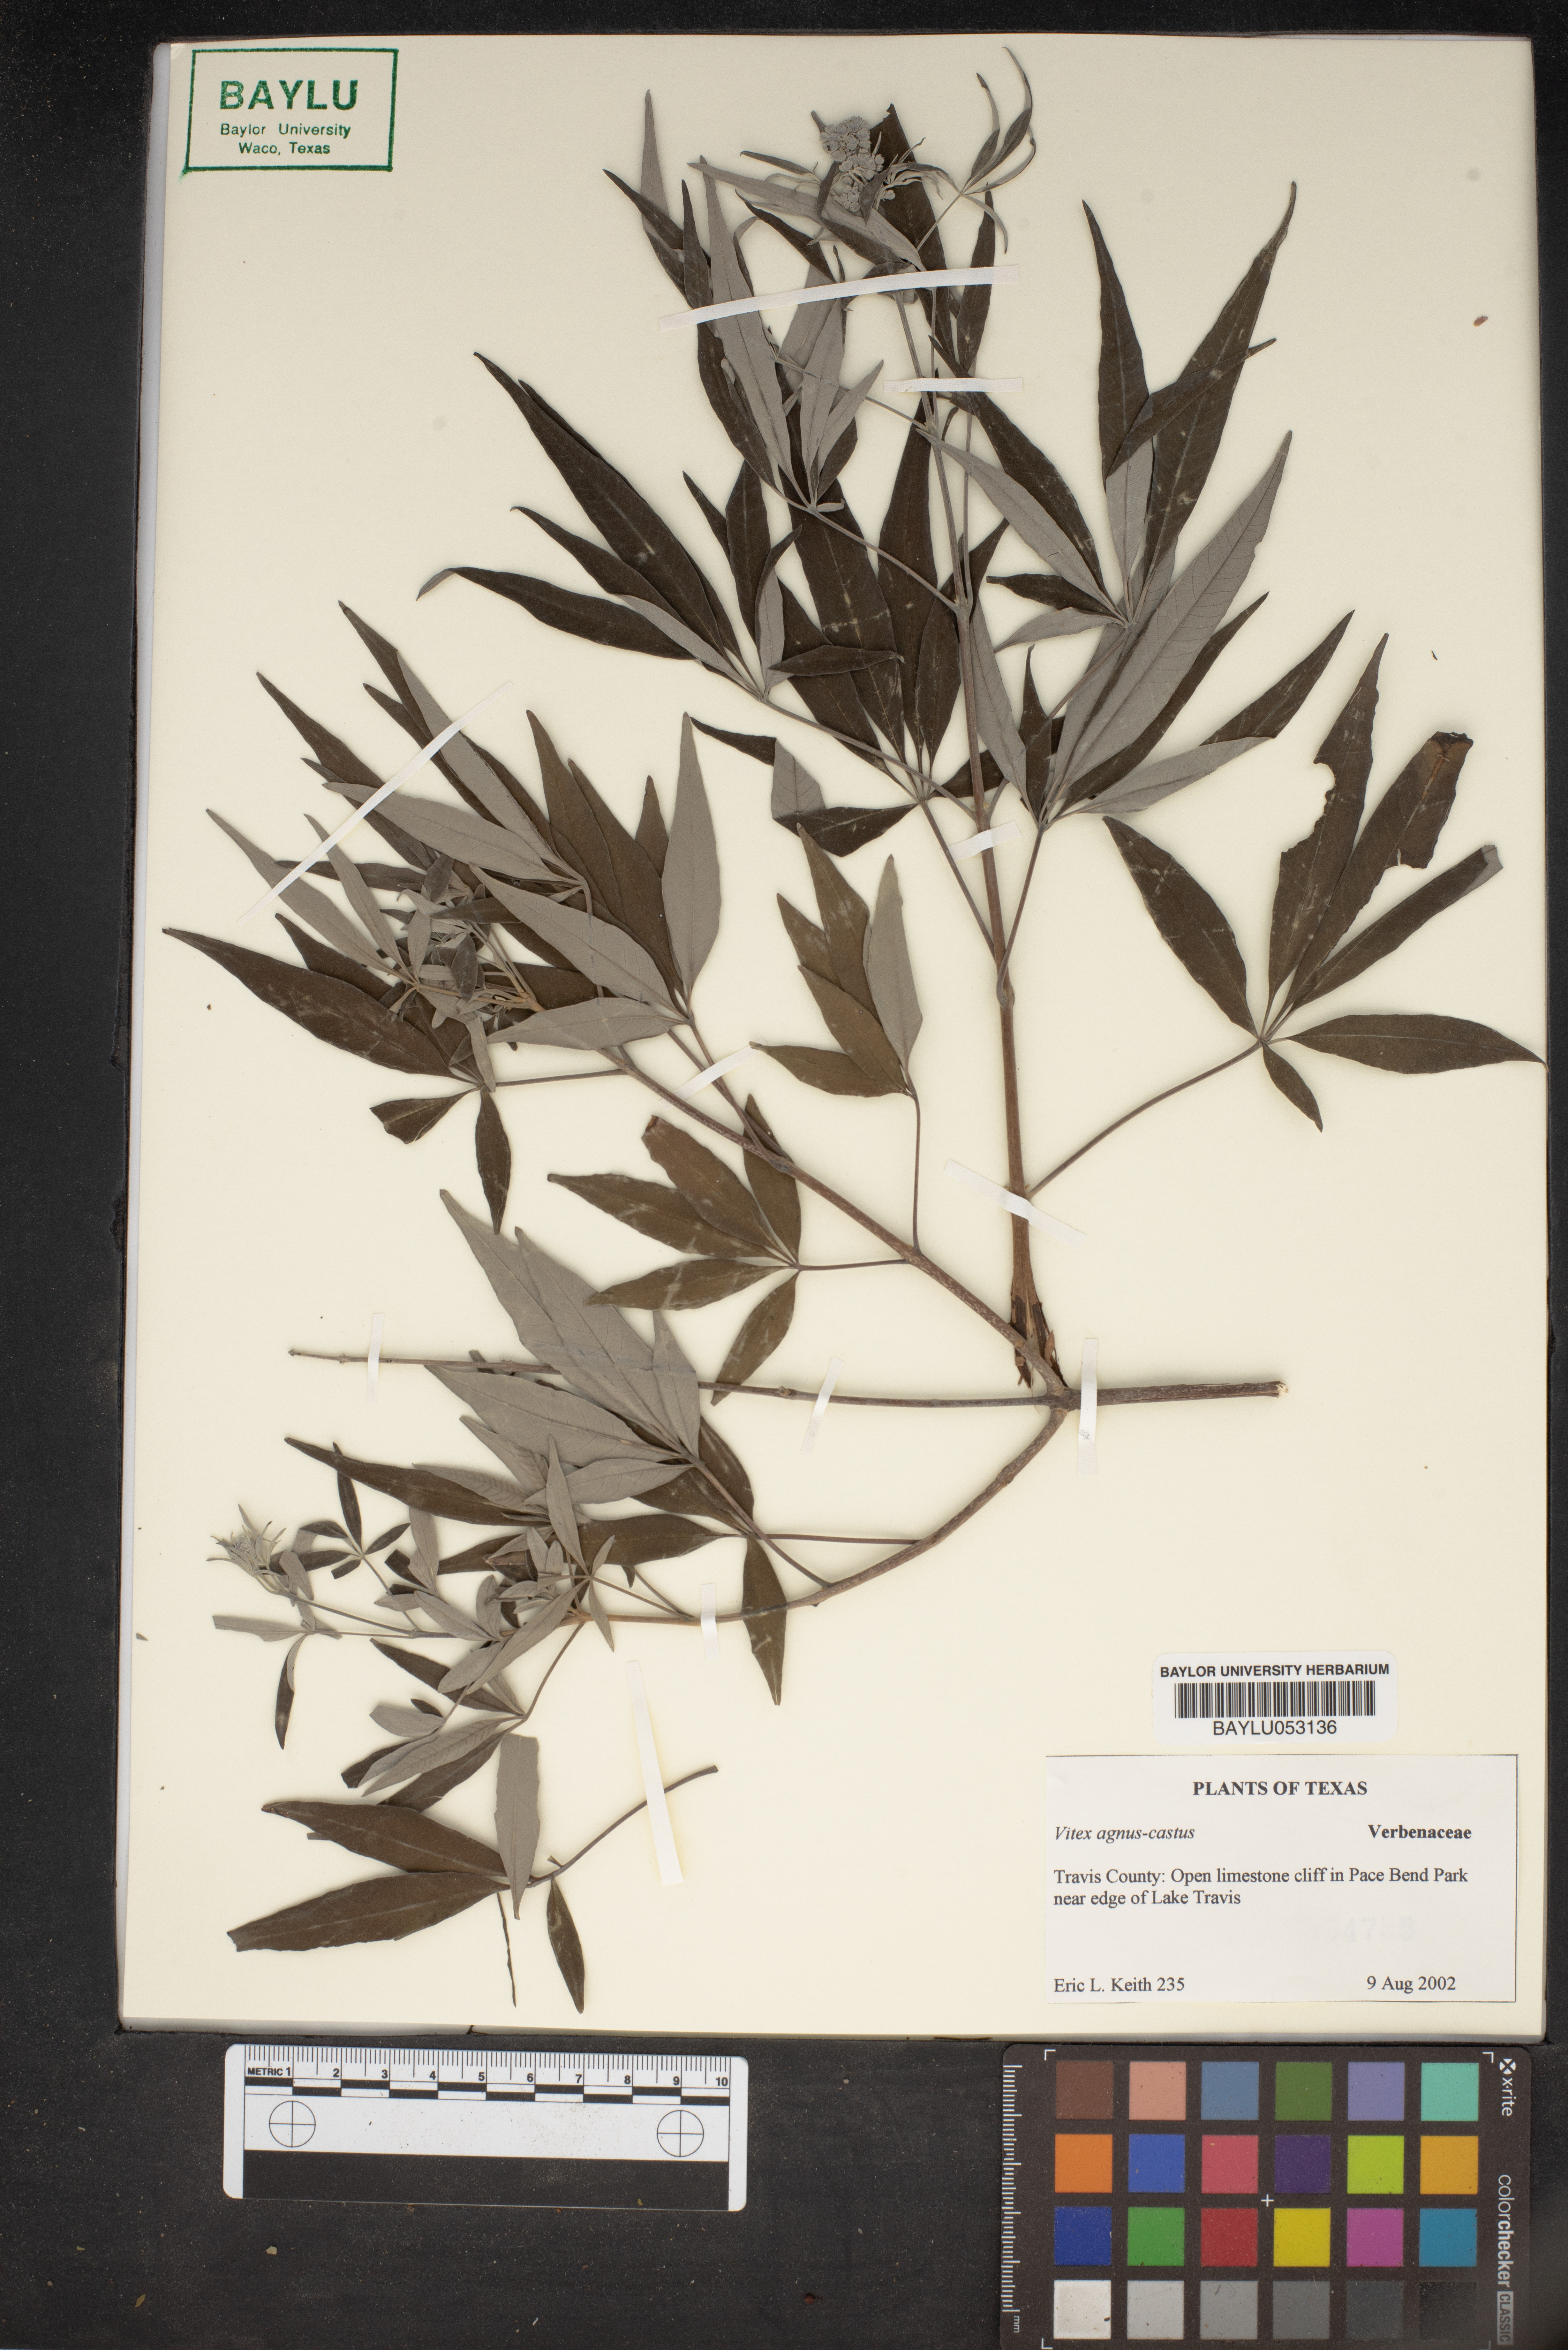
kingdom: Plantae
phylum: Tracheophyta
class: Magnoliopsida
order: Lamiales
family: Lamiaceae
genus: Vitex
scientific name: Vitex agnus-castus
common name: Chasteberry
